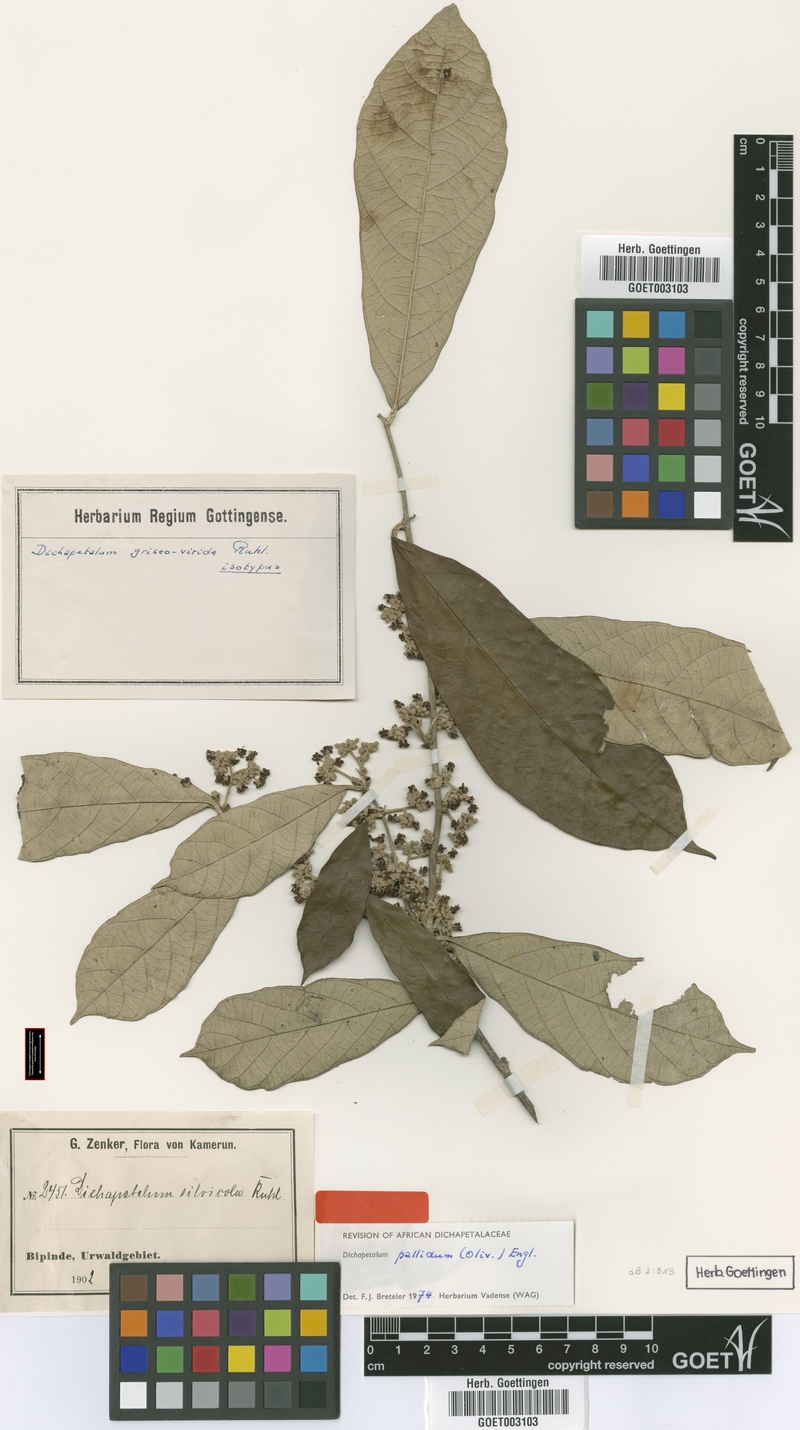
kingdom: Plantae
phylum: Tracheophyta
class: Magnoliopsida
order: Malpighiales
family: Dichapetalaceae
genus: Dichapetalum
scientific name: Dichapetalum pallidum
